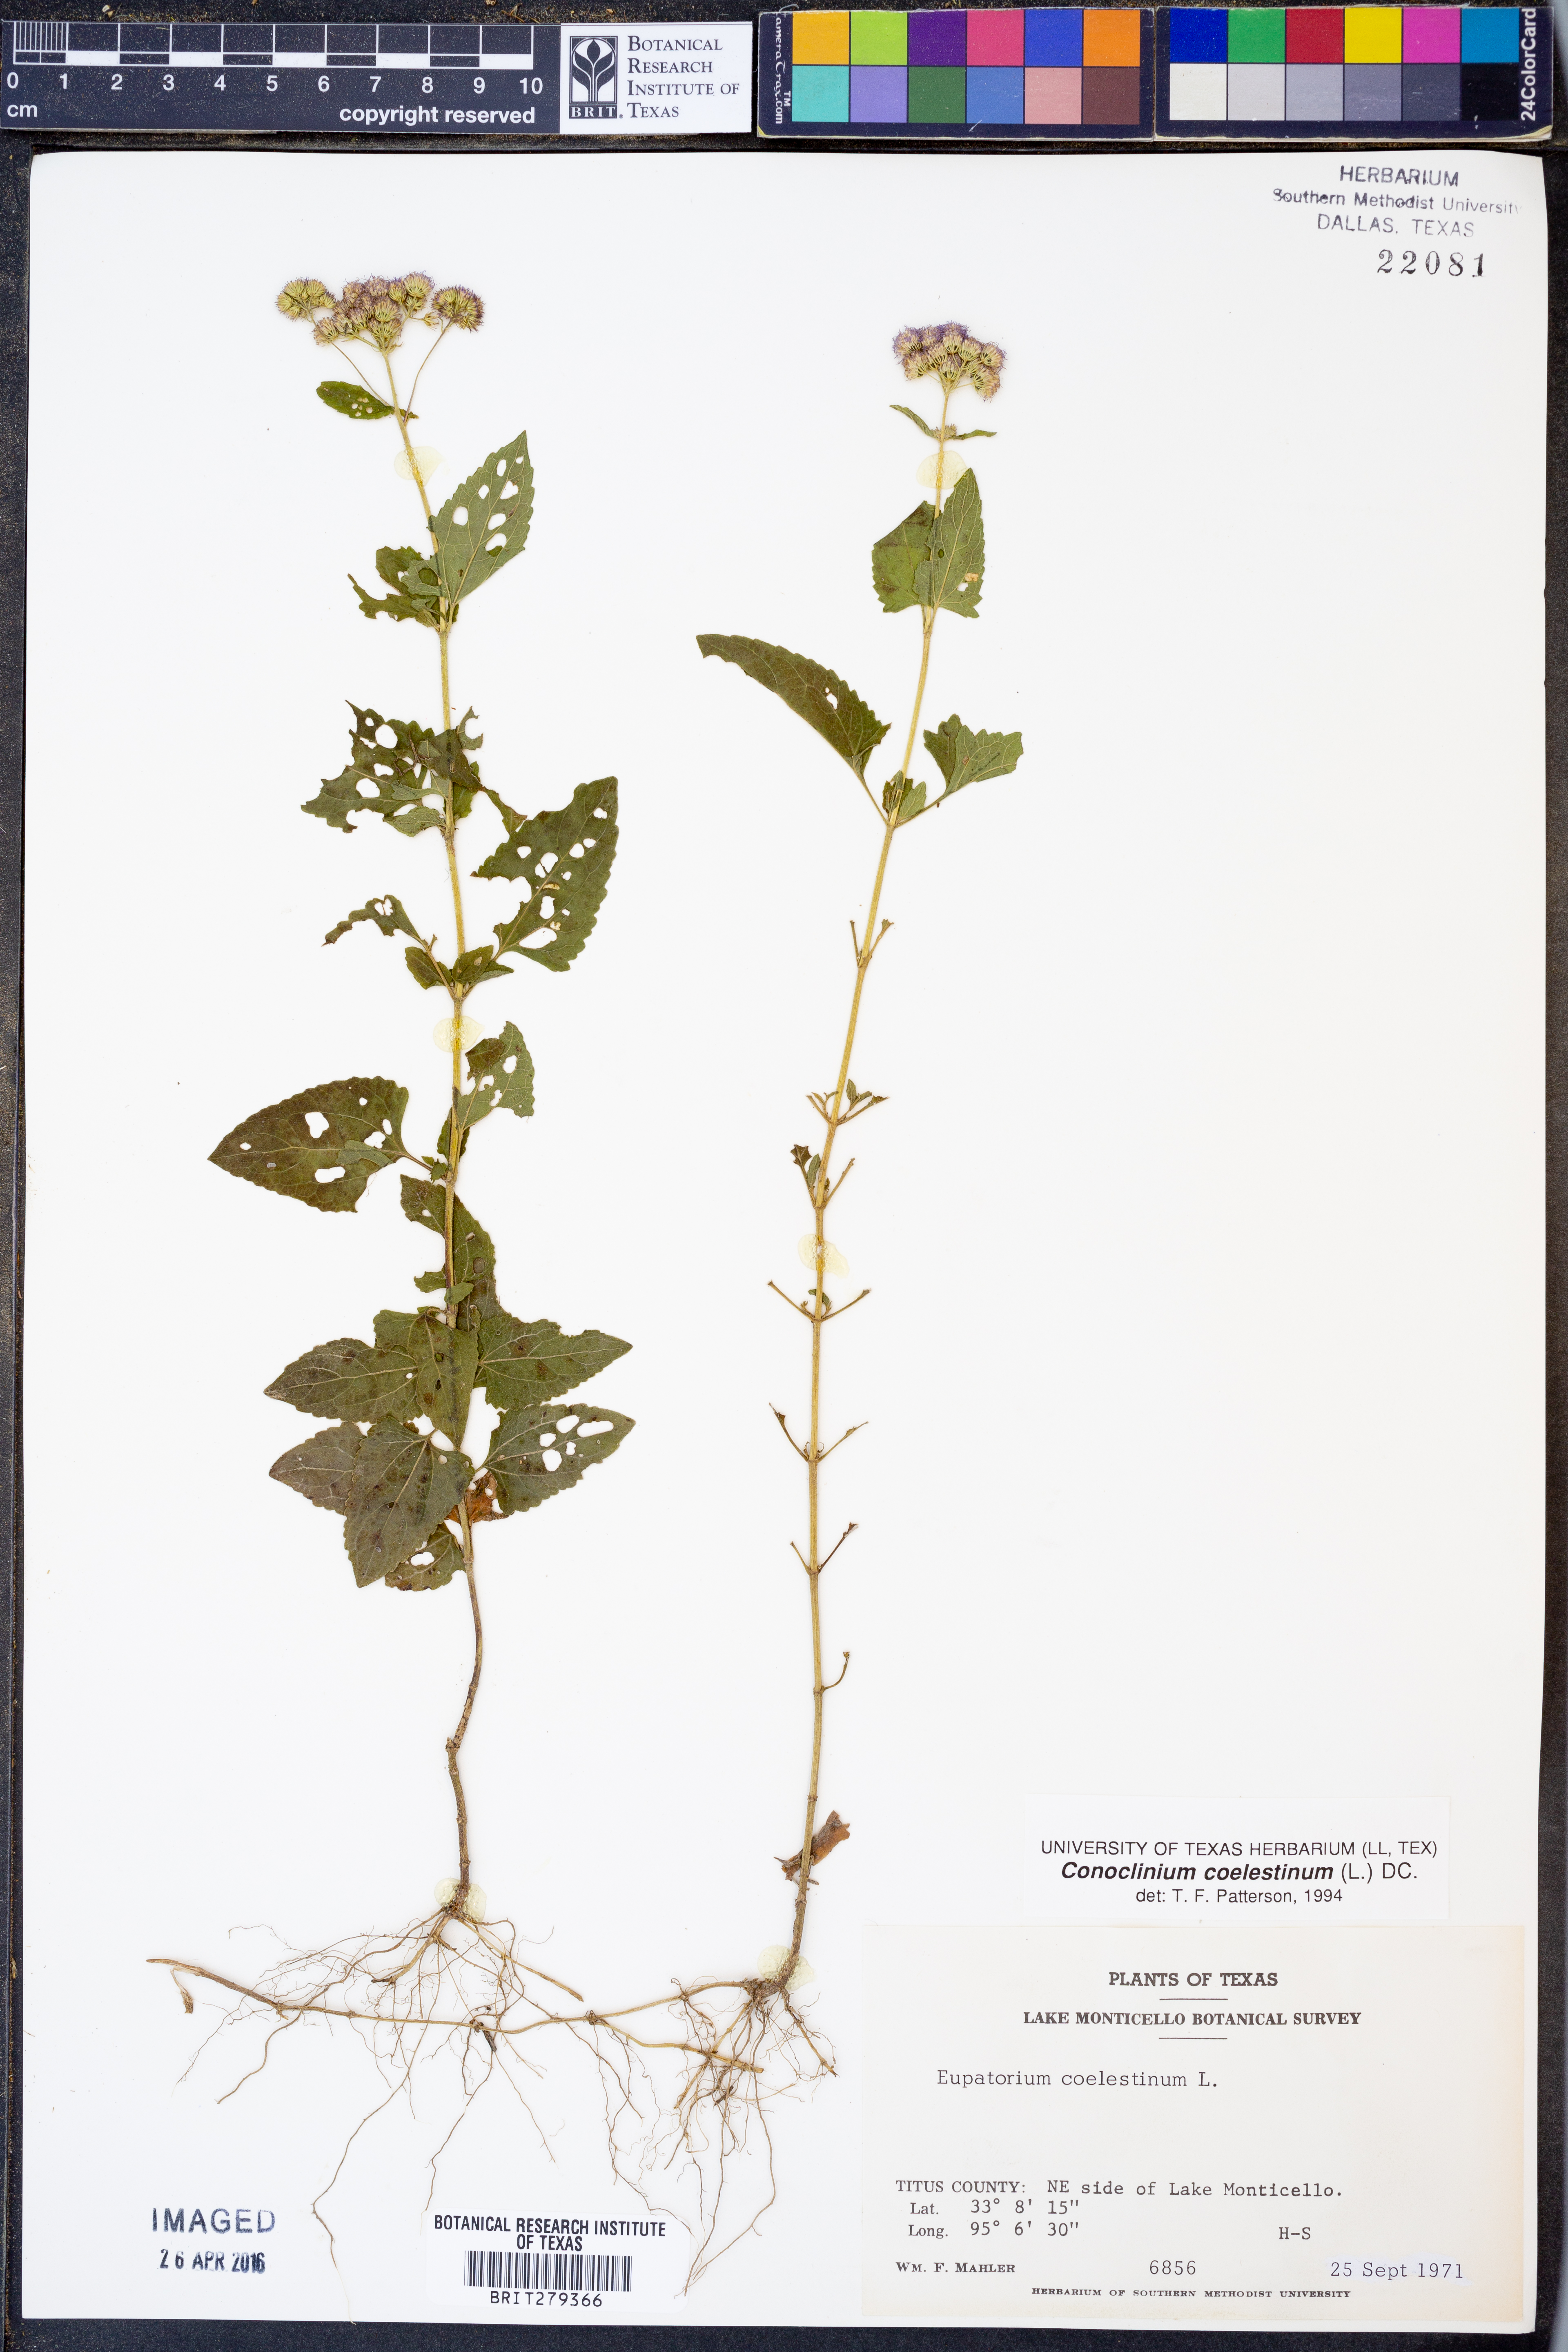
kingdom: Plantae
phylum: Tracheophyta
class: Magnoliopsida
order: Asterales
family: Asteraceae
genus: Conoclinium
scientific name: Conoclinium coelestinum
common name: Blue mistflower
